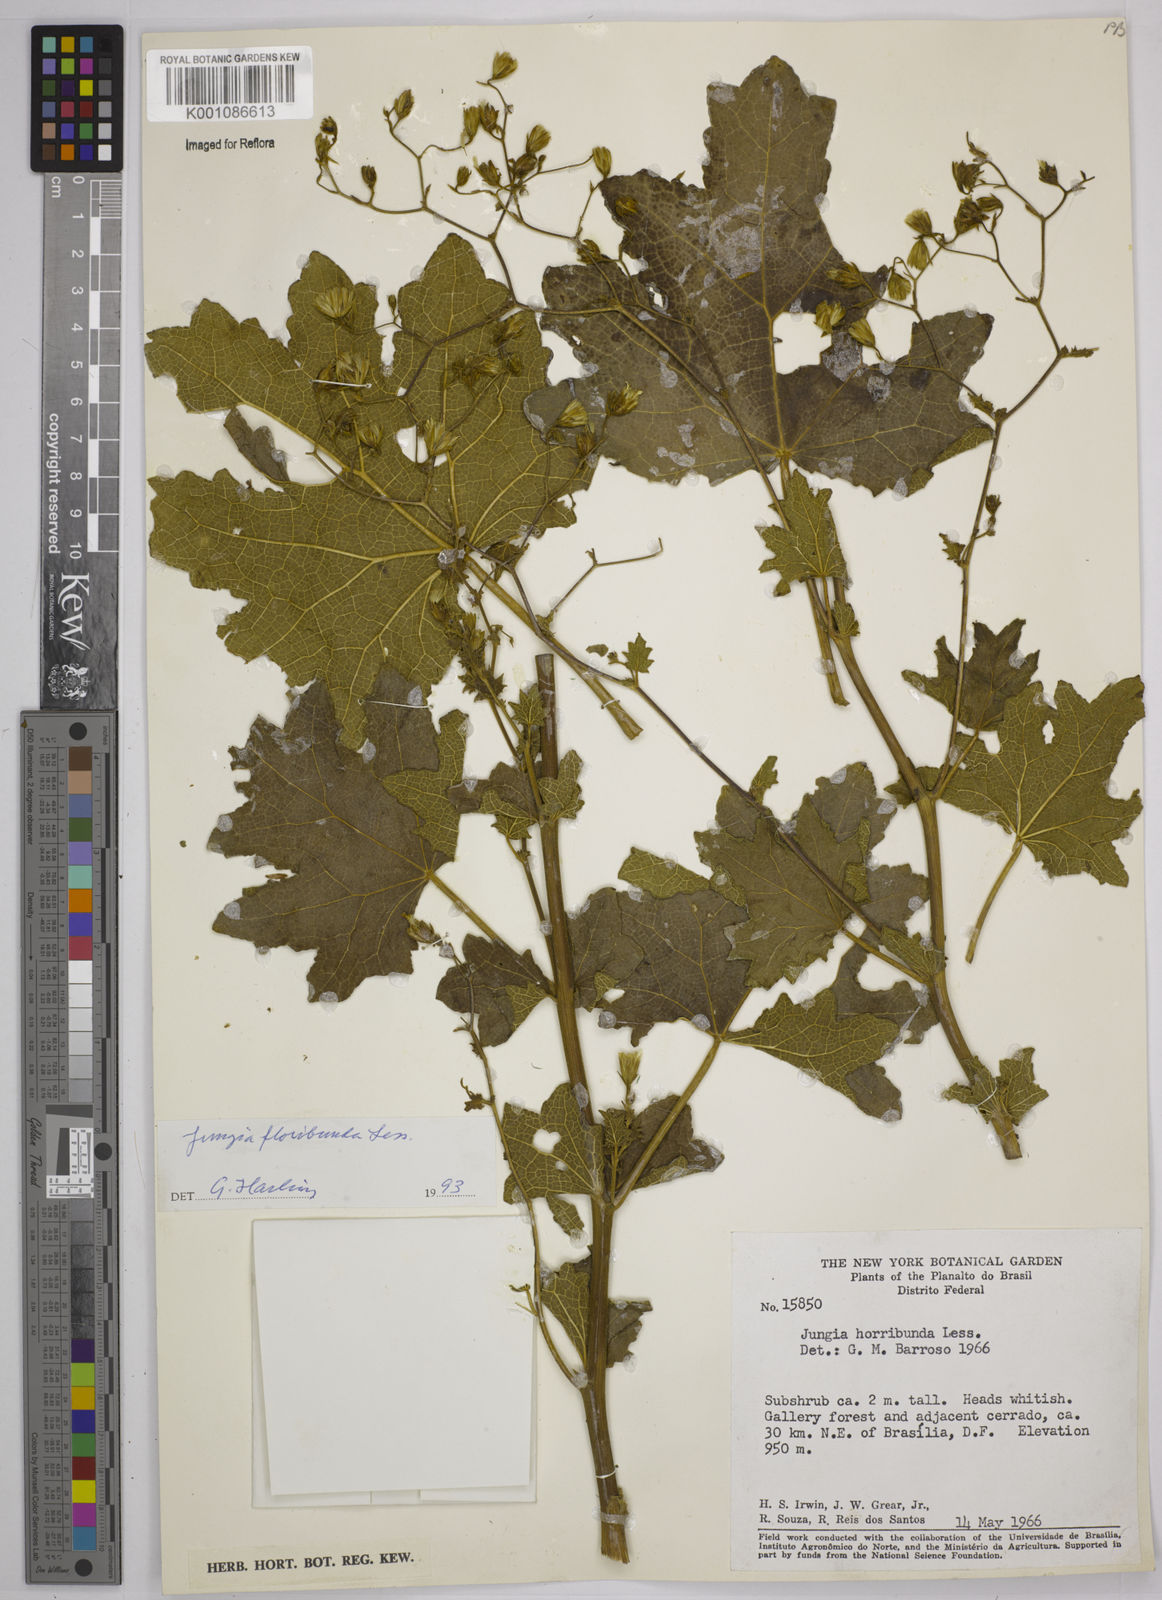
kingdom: Plantae
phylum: Tracheophyta
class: Magnoliopsida
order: Asterales
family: Asteraceae
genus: Jungia
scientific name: Jungia floribunda
